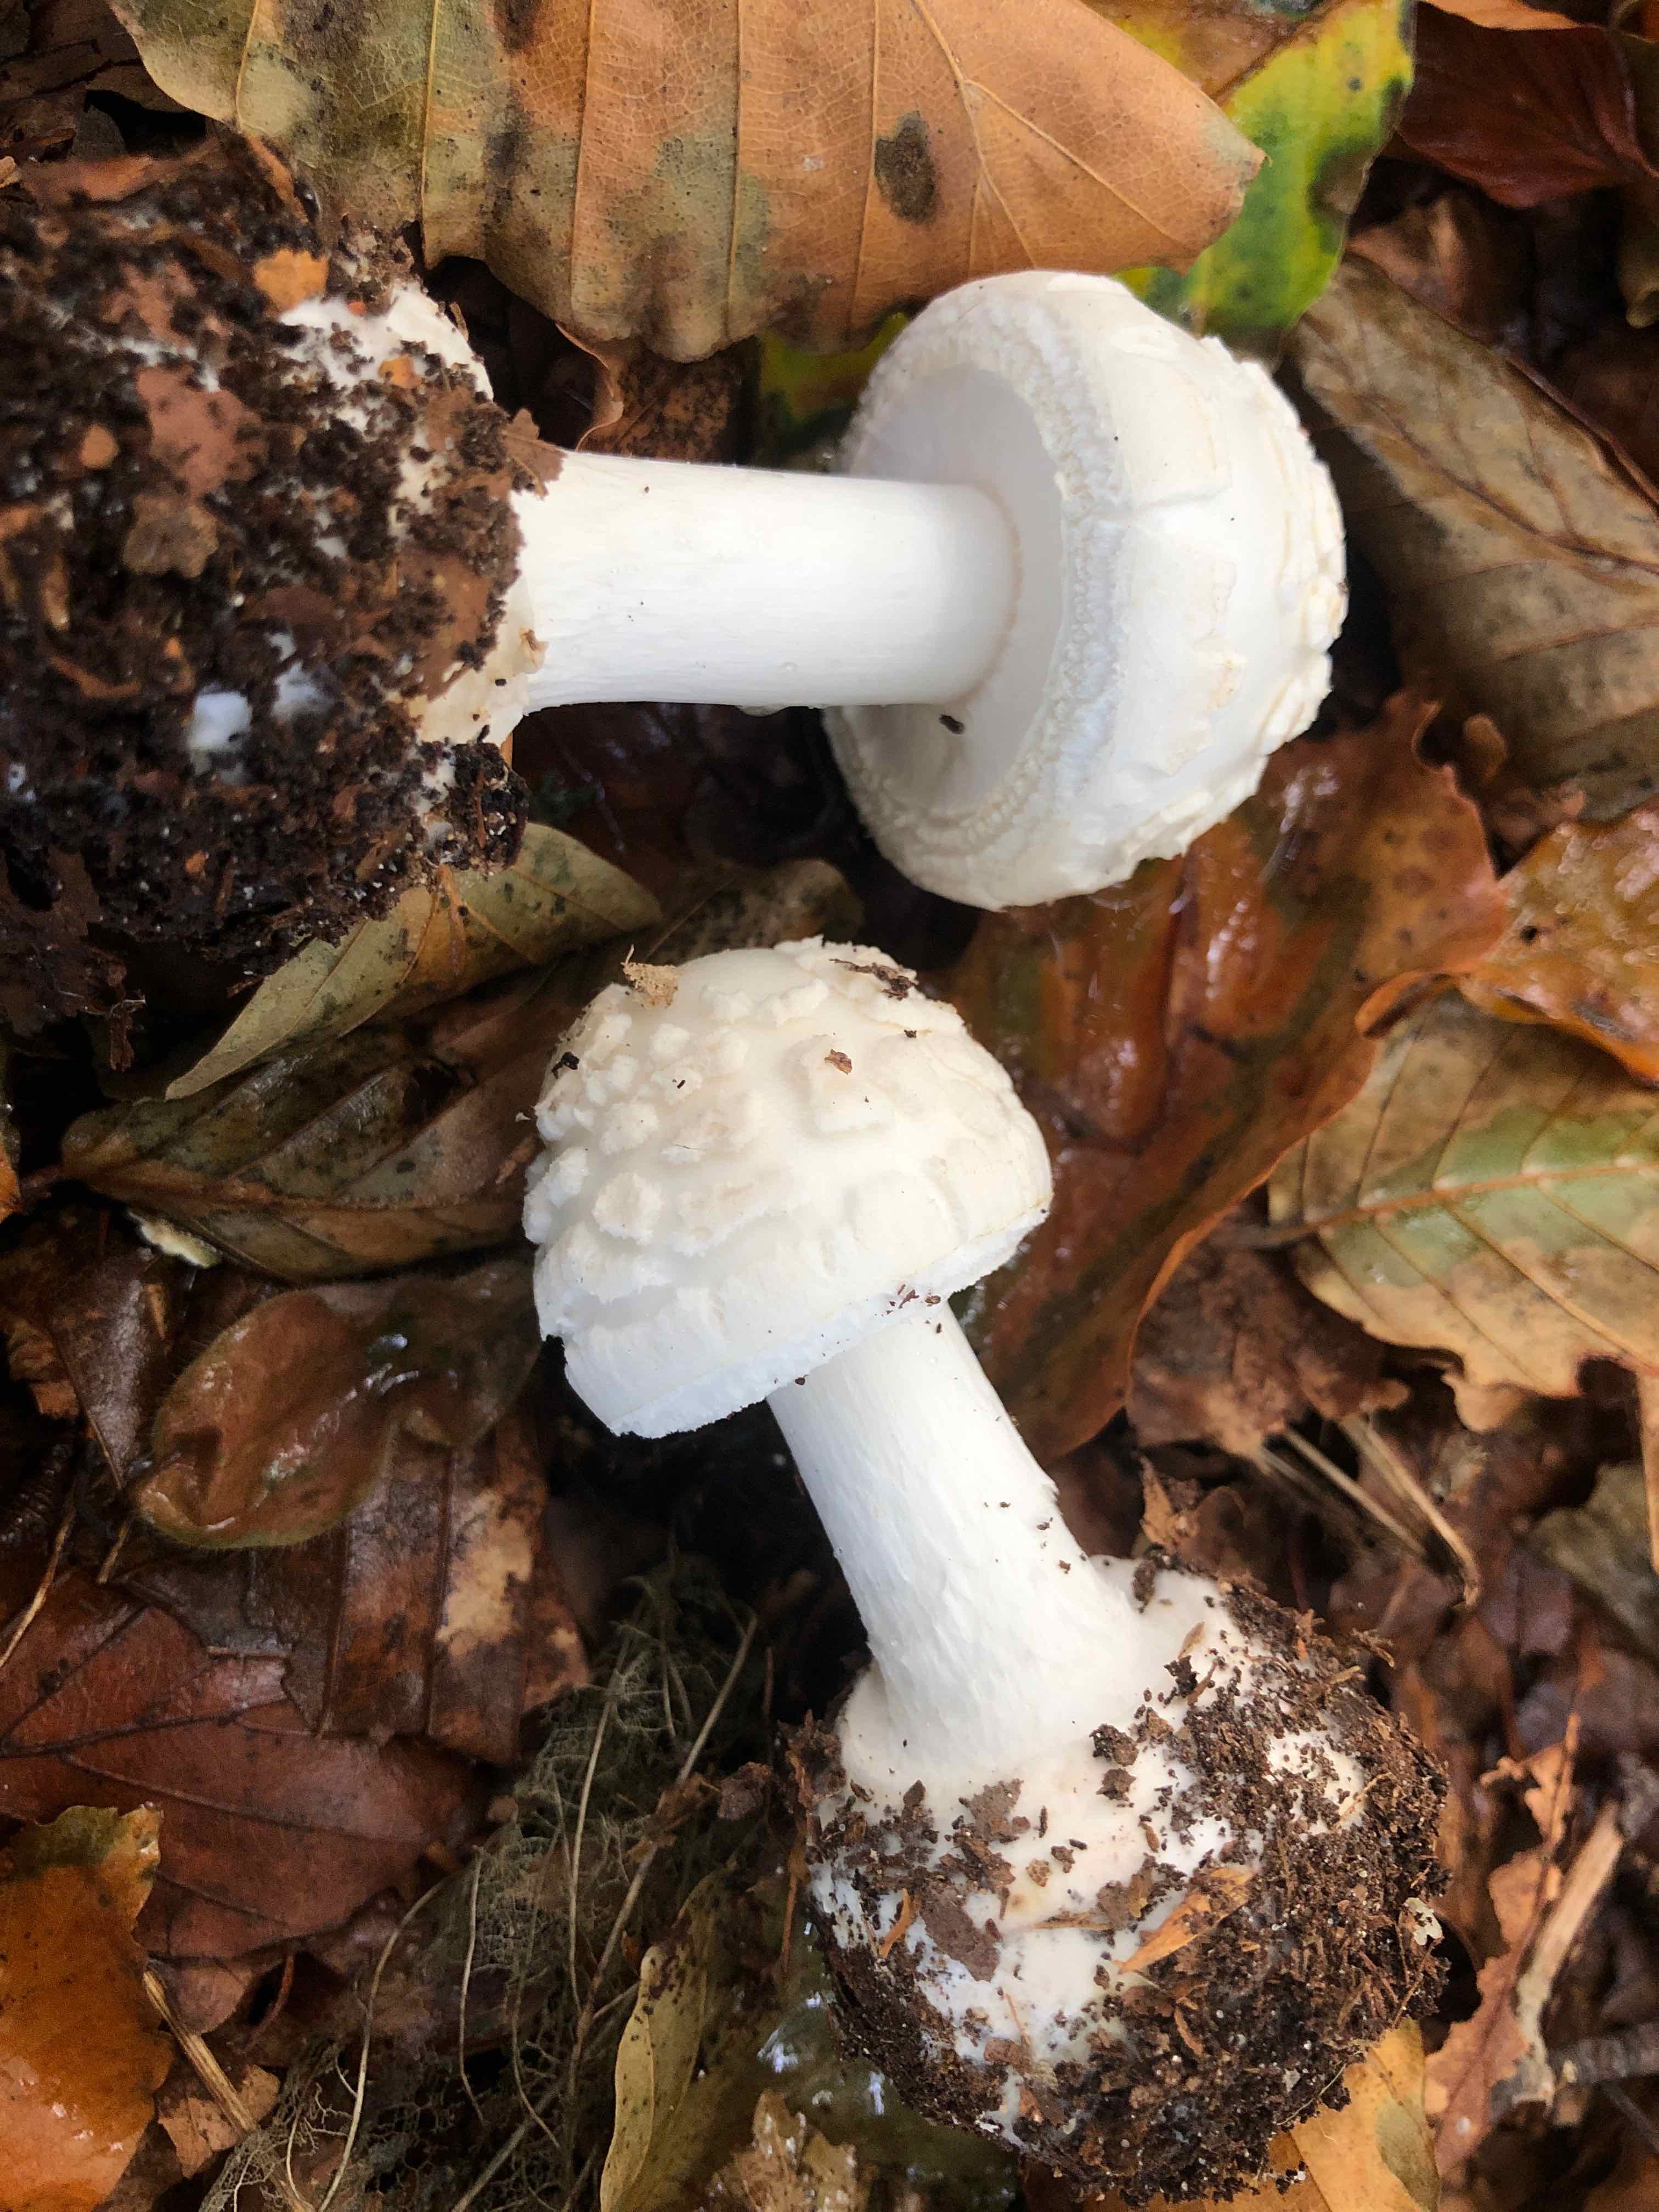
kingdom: Fungi
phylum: Basidiomycota
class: Agaricomycetes
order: Agaricales
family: Amanitaceae
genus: Amanita
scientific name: Amanita citrina
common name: False death-cap
